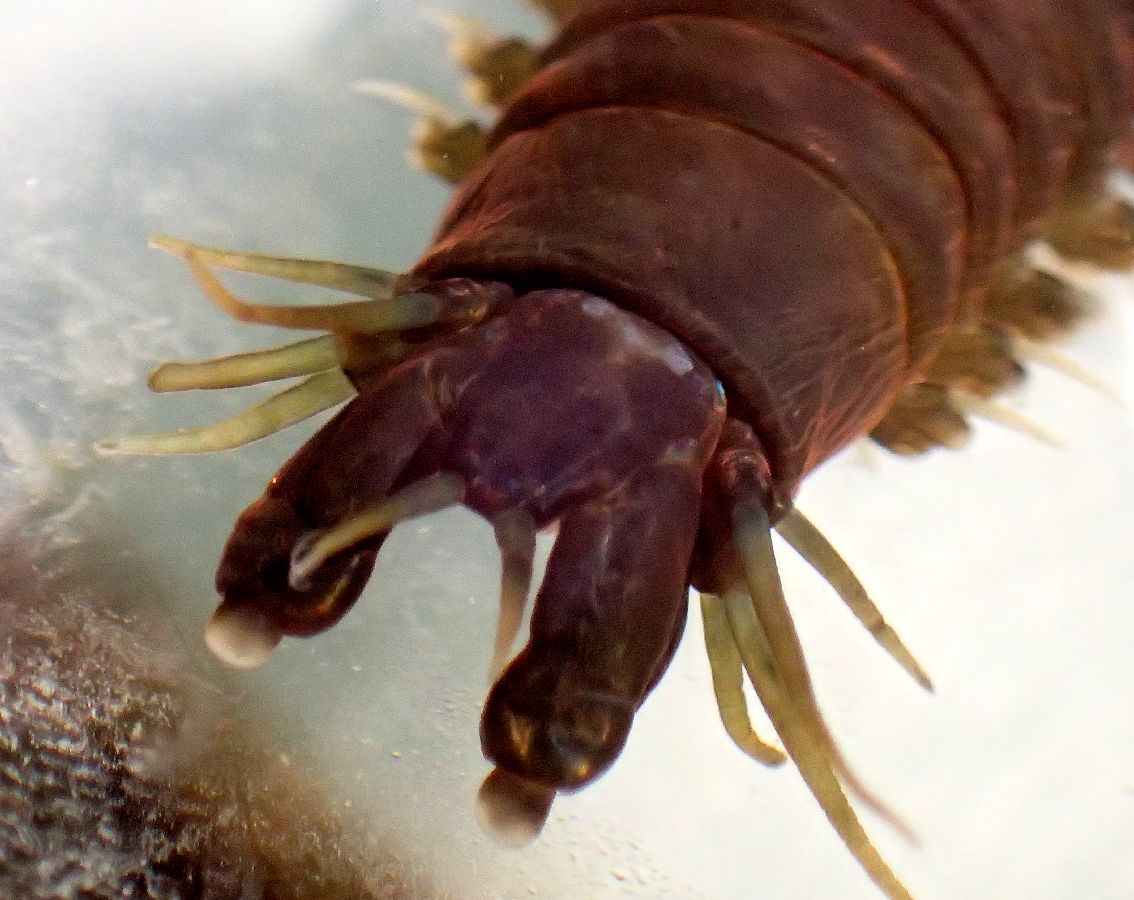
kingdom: Animalia
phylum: Annelida
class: Polychaeta
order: Phyllodocida
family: Nereididae
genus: Nereis
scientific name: Nereis pelagica
